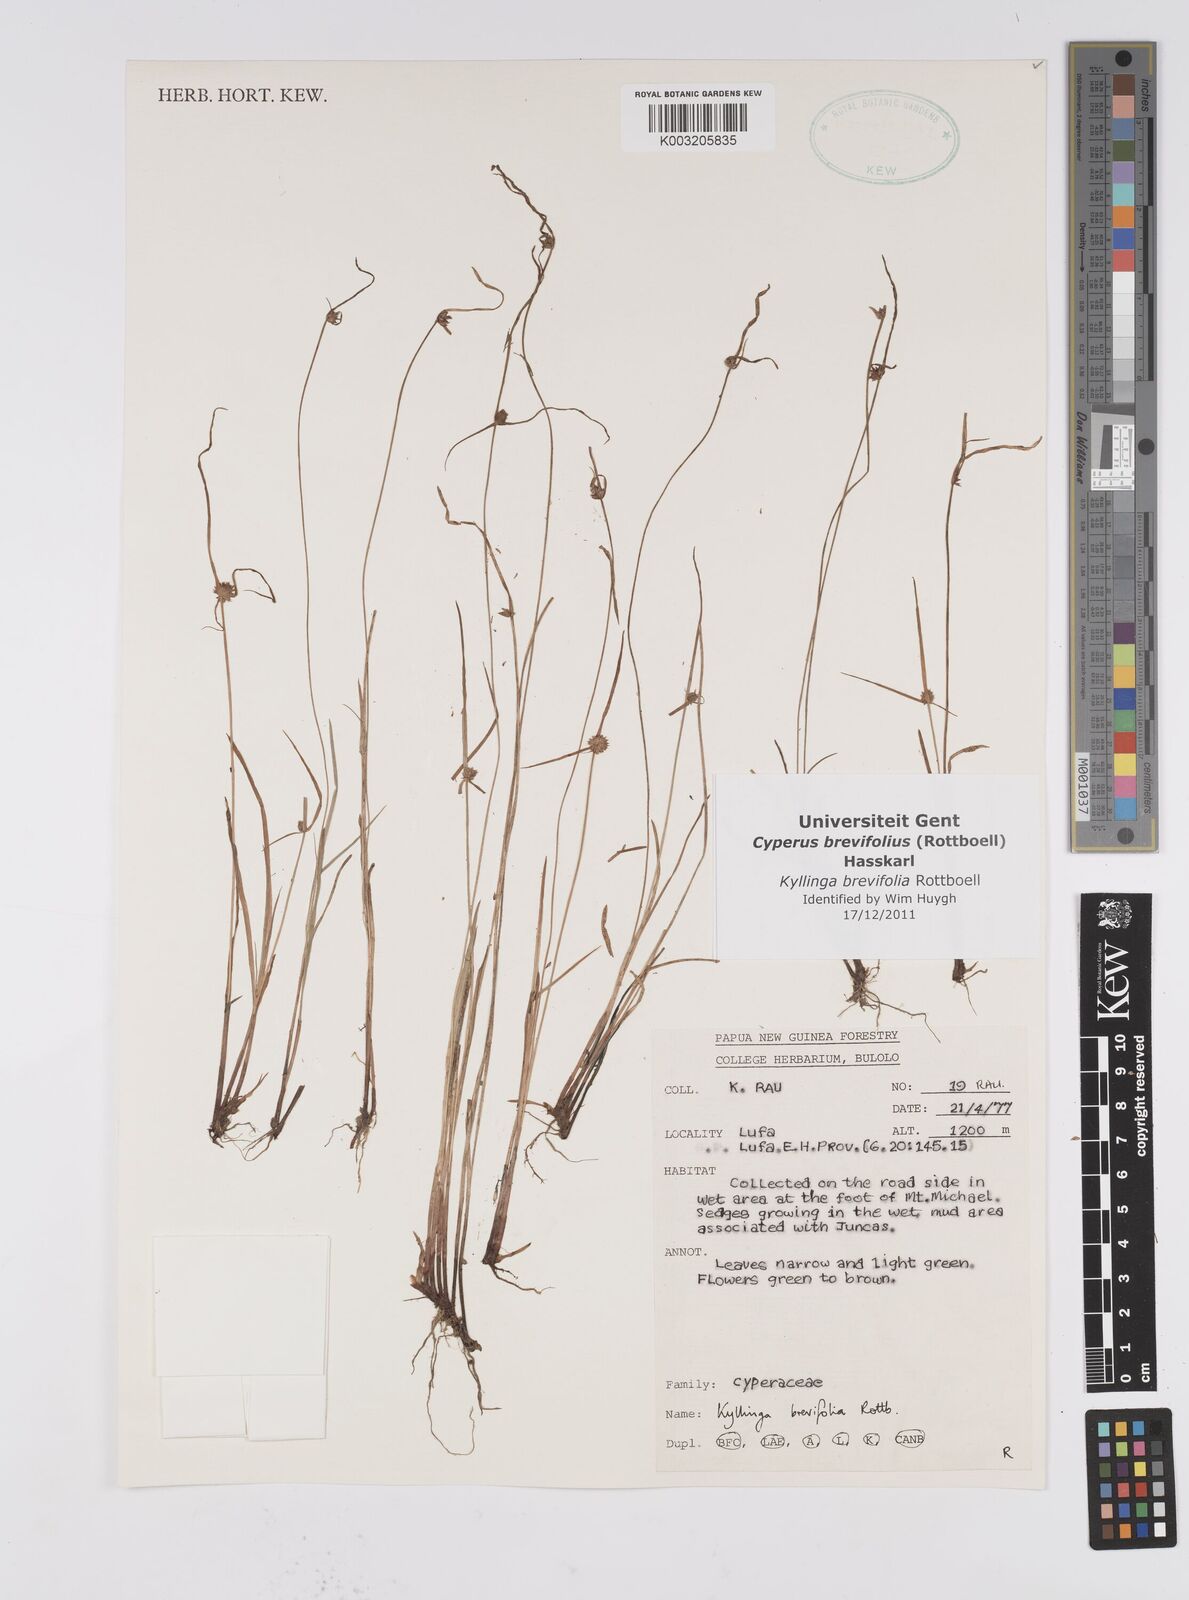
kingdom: Plantae
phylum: Tracheophyta
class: Liliopsida
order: Poales
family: Cyperaceae
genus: Cyperus
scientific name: Cyperus brevifolius
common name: Globe kyllinga
